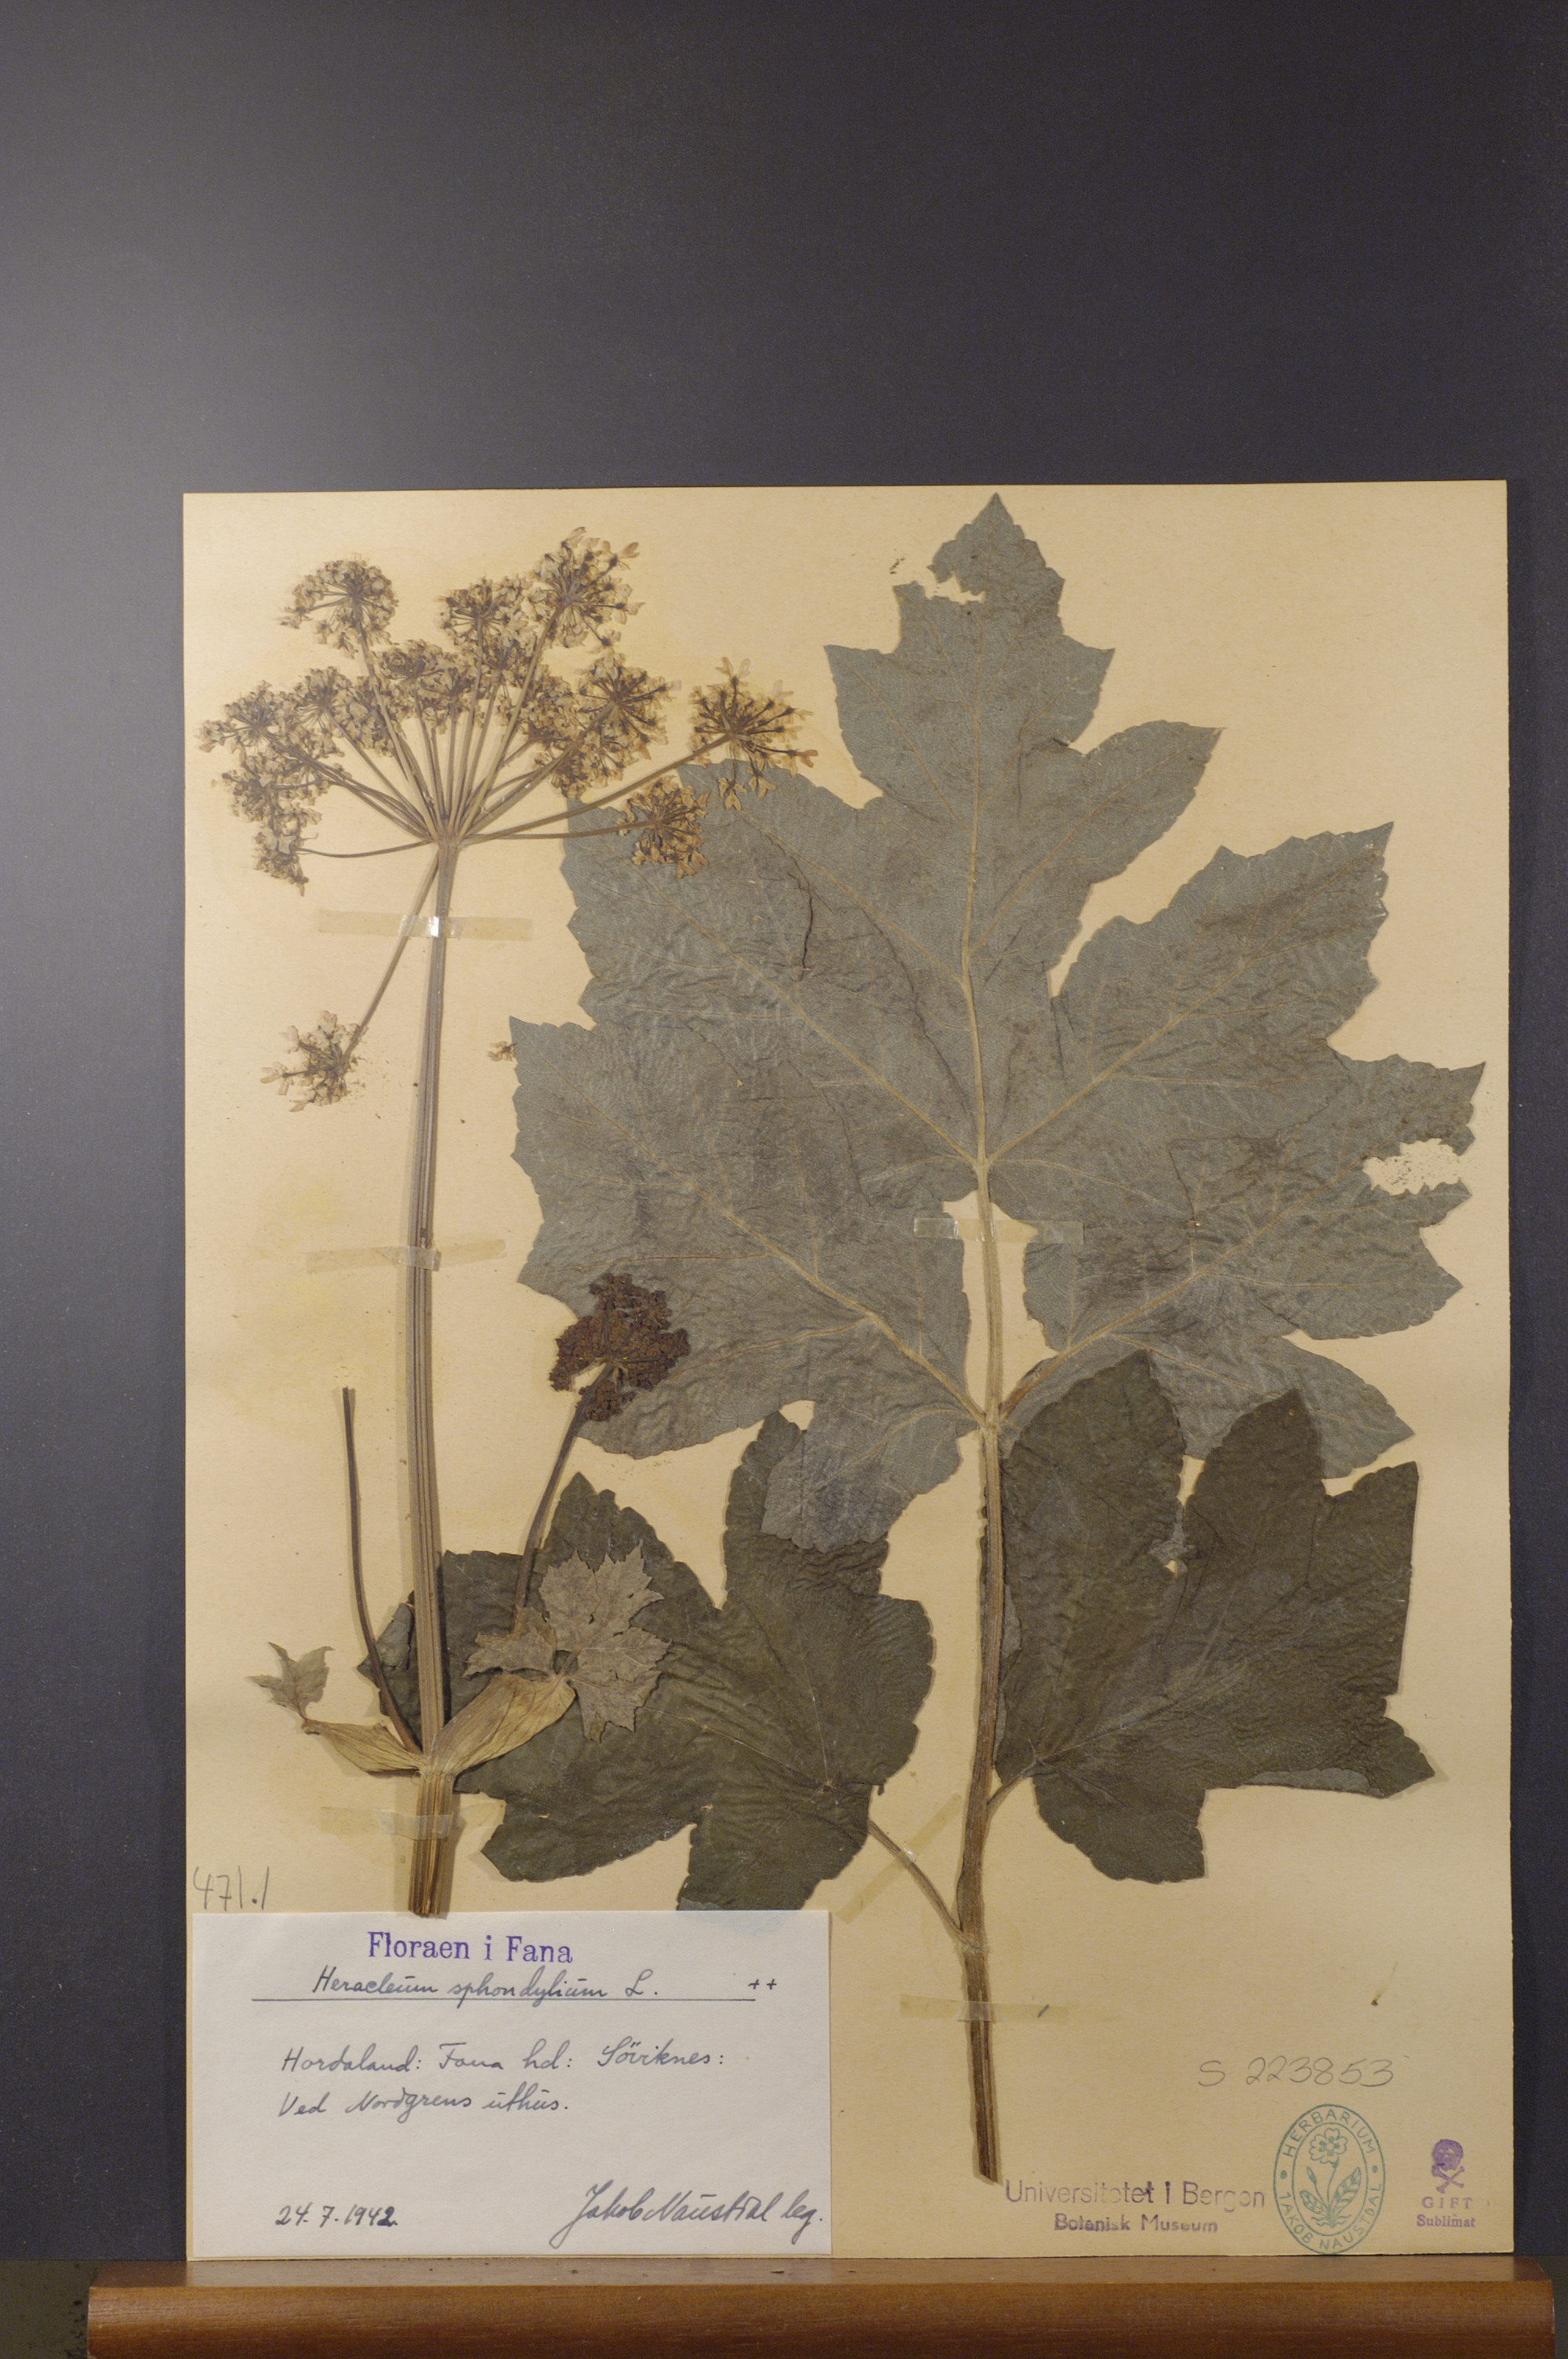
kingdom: Plantae
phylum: Tracheophyta
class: Magnoliopsida
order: Apiales
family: Apiaceae
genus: Heracleum
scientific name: Heracleum sphondylium
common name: Hogweed
